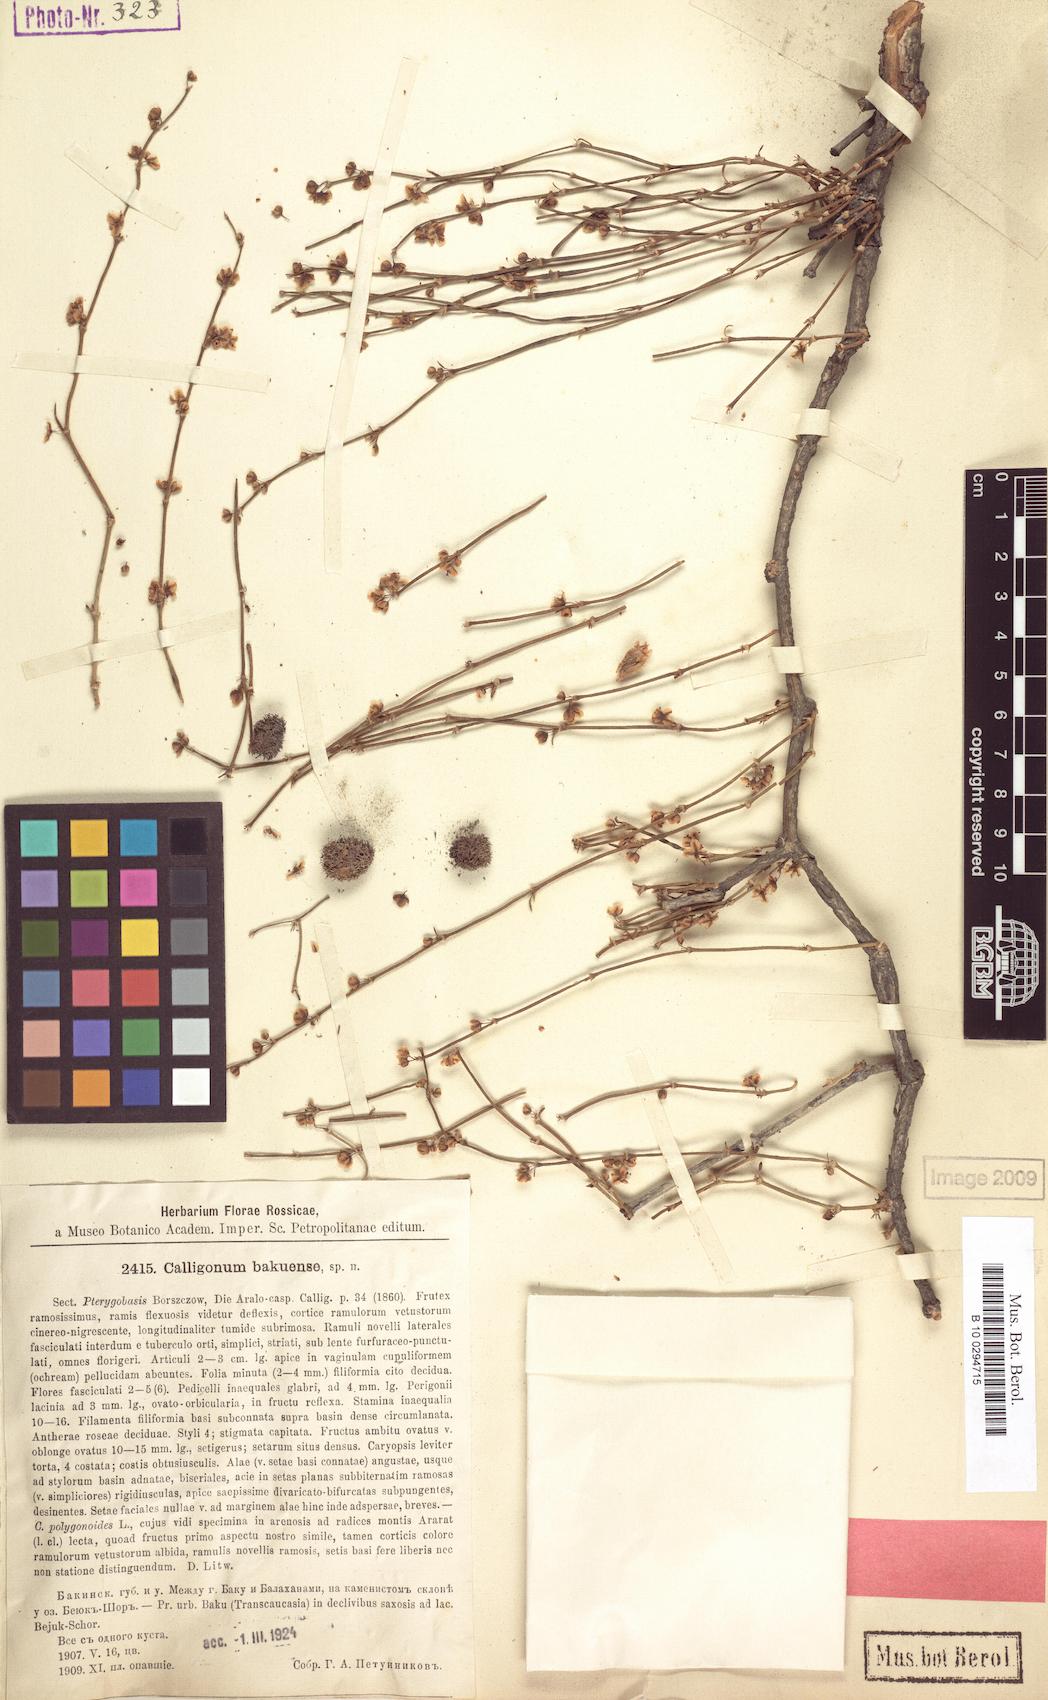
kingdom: Plantae
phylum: Tracheophyta
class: Magnoliopsida
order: Caryophyllales
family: Polygonaceae
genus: Calligonum
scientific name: Calligonum bakuense
